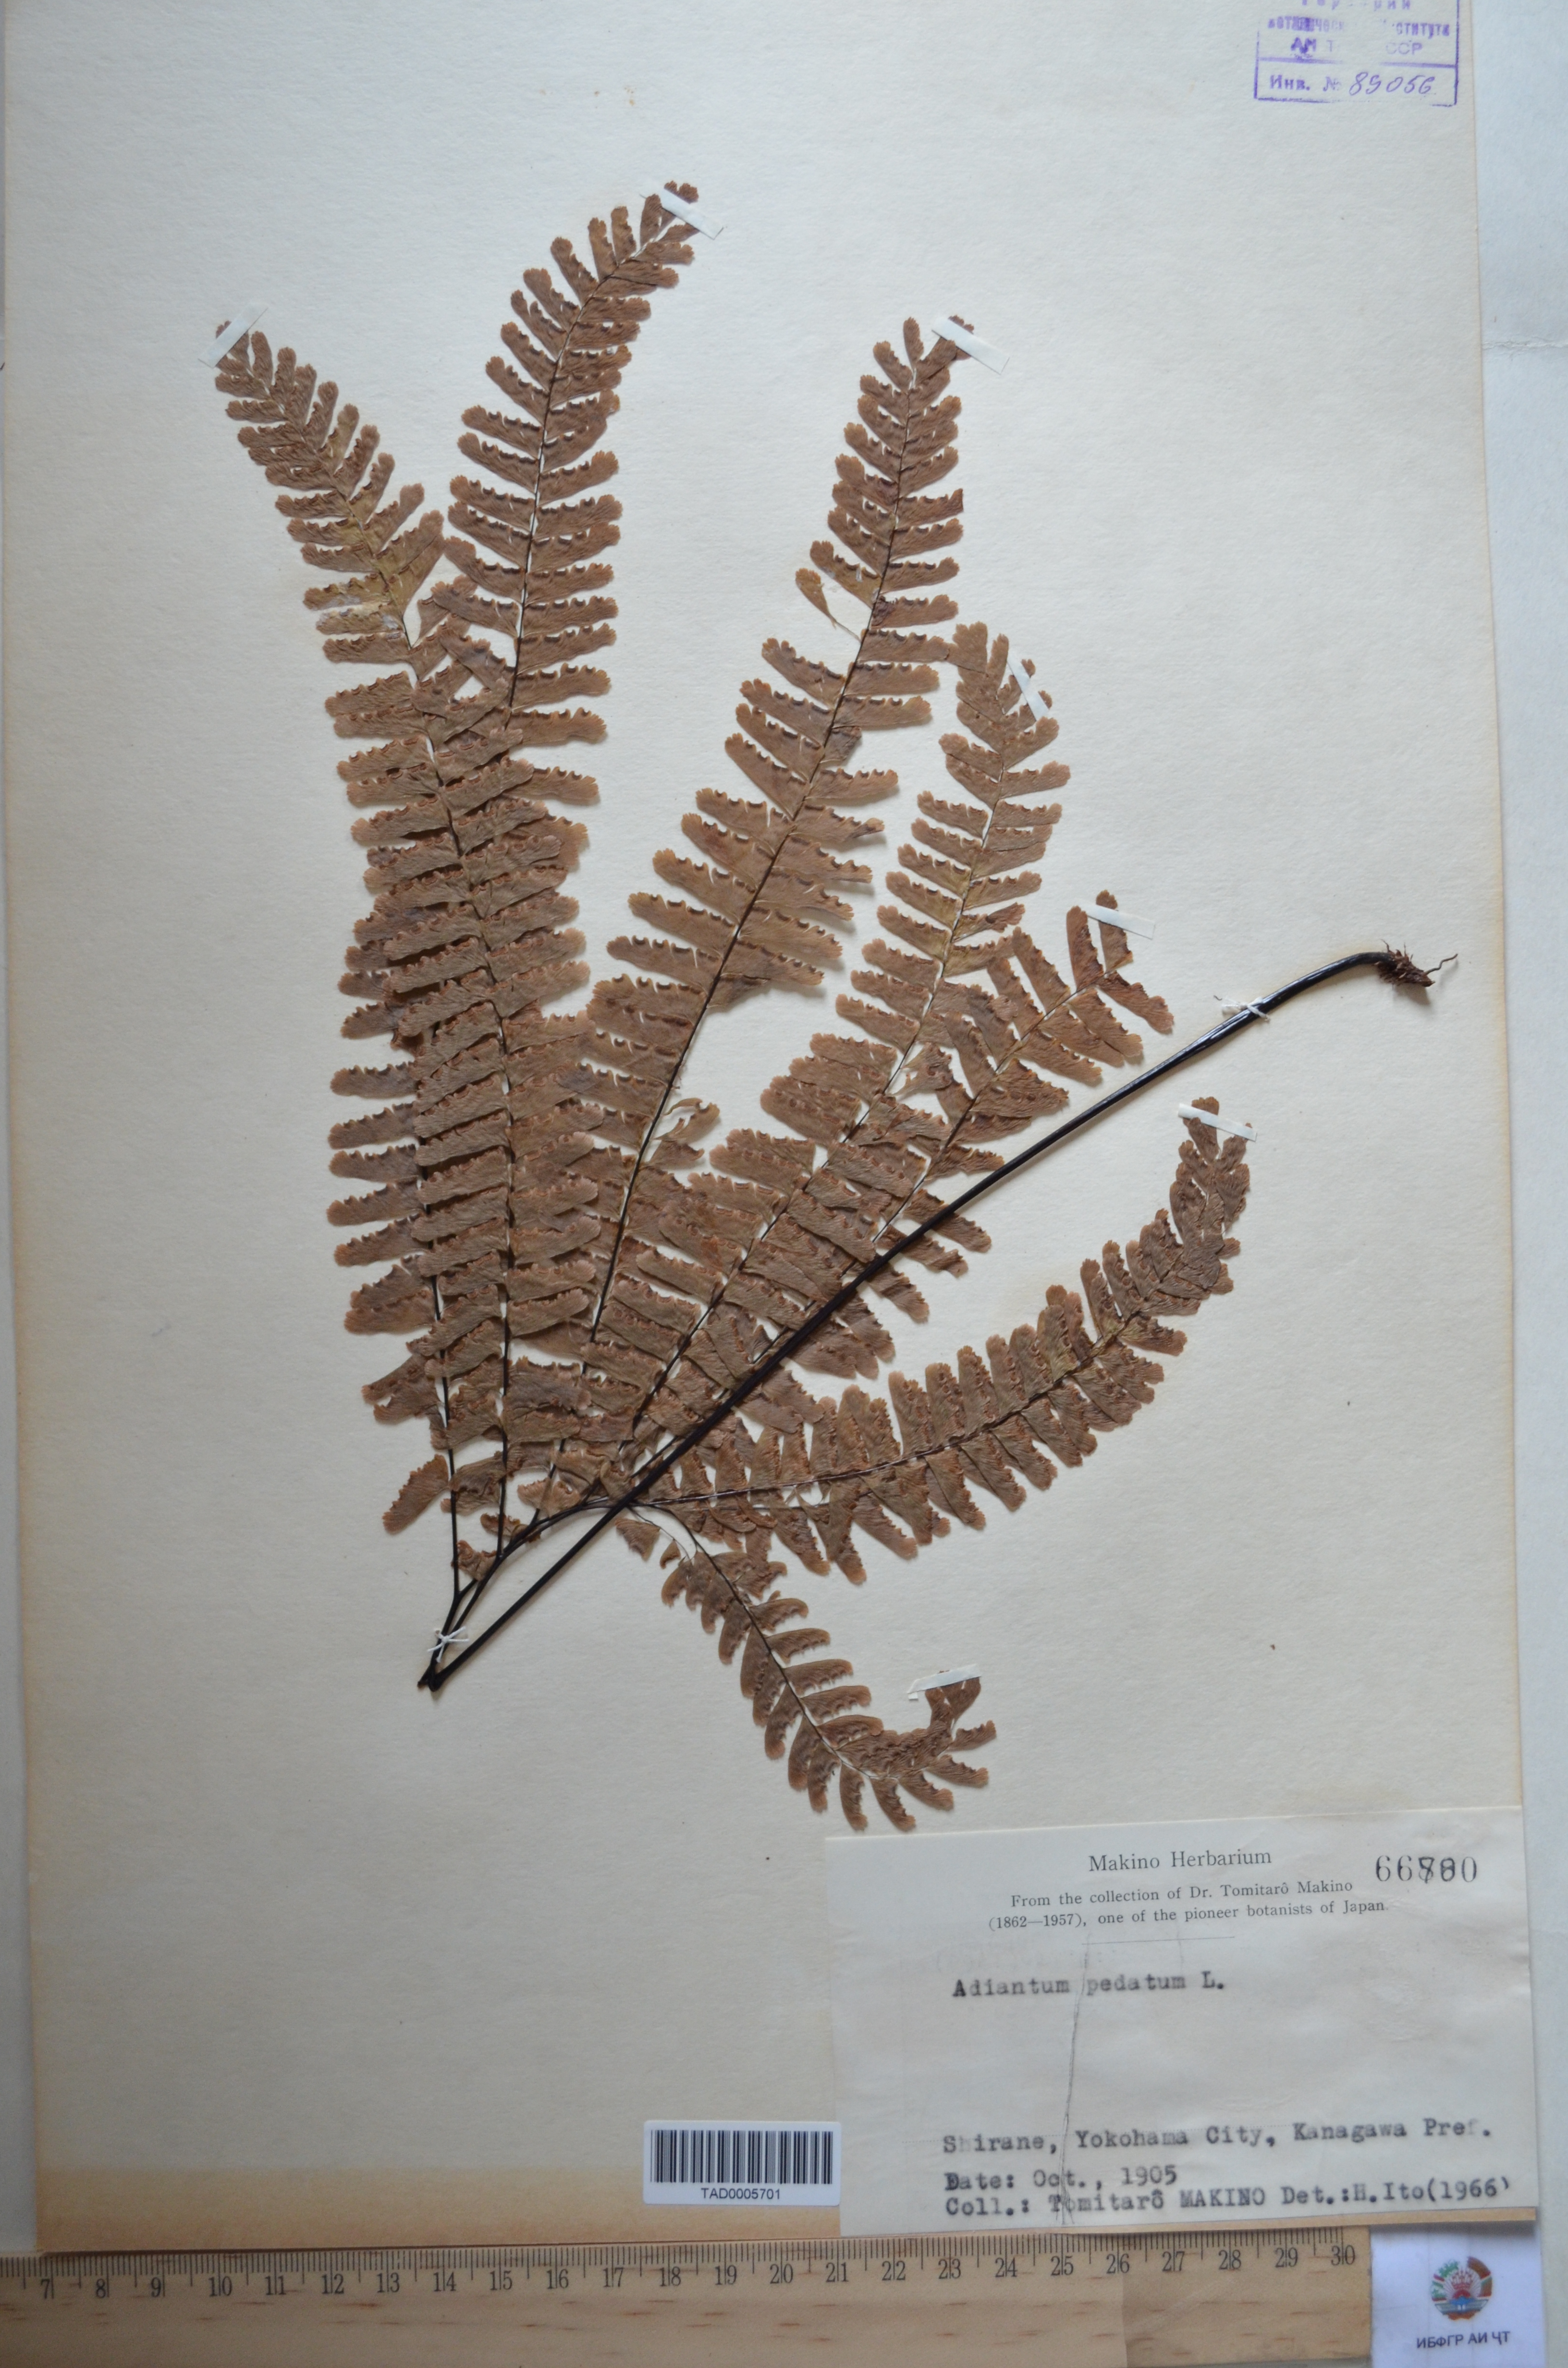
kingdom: Plantae
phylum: Tracheophyta
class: Polypodiopsida
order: Polypodiales
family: Pteridaceae
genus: Adiantum
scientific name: Adiantum pedatum
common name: Five-finger fern
